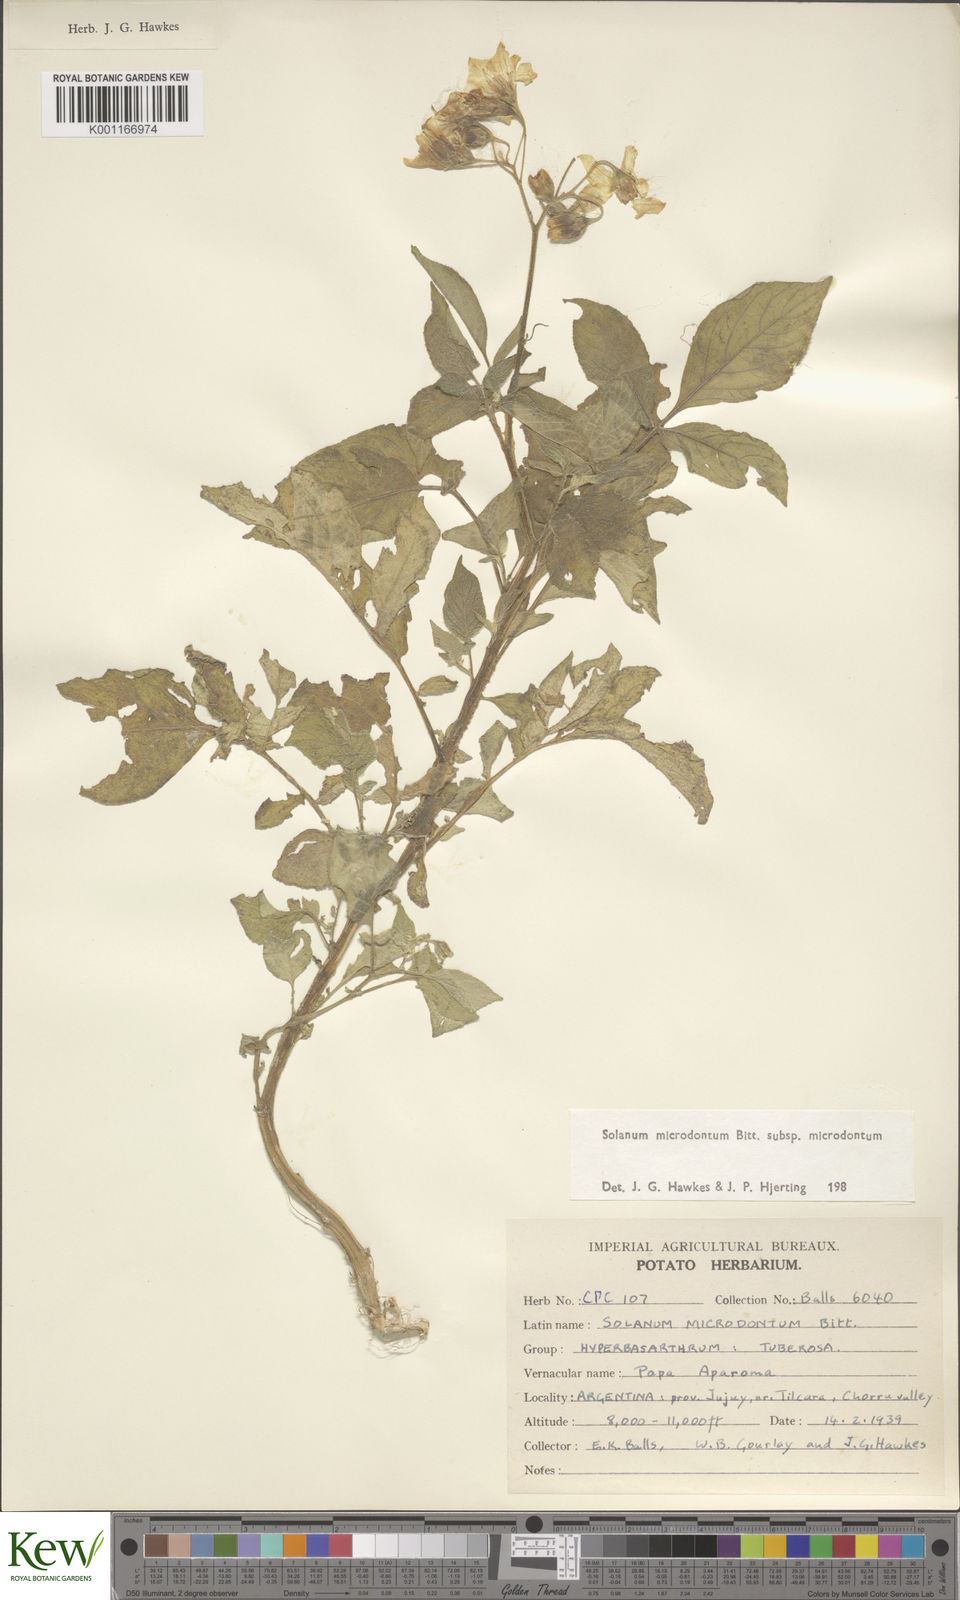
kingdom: Plantae
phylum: Tracheophyta
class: Magnoliopsida
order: Solanales
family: Solanaceae
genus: Solanum
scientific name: Solanum microdontum
